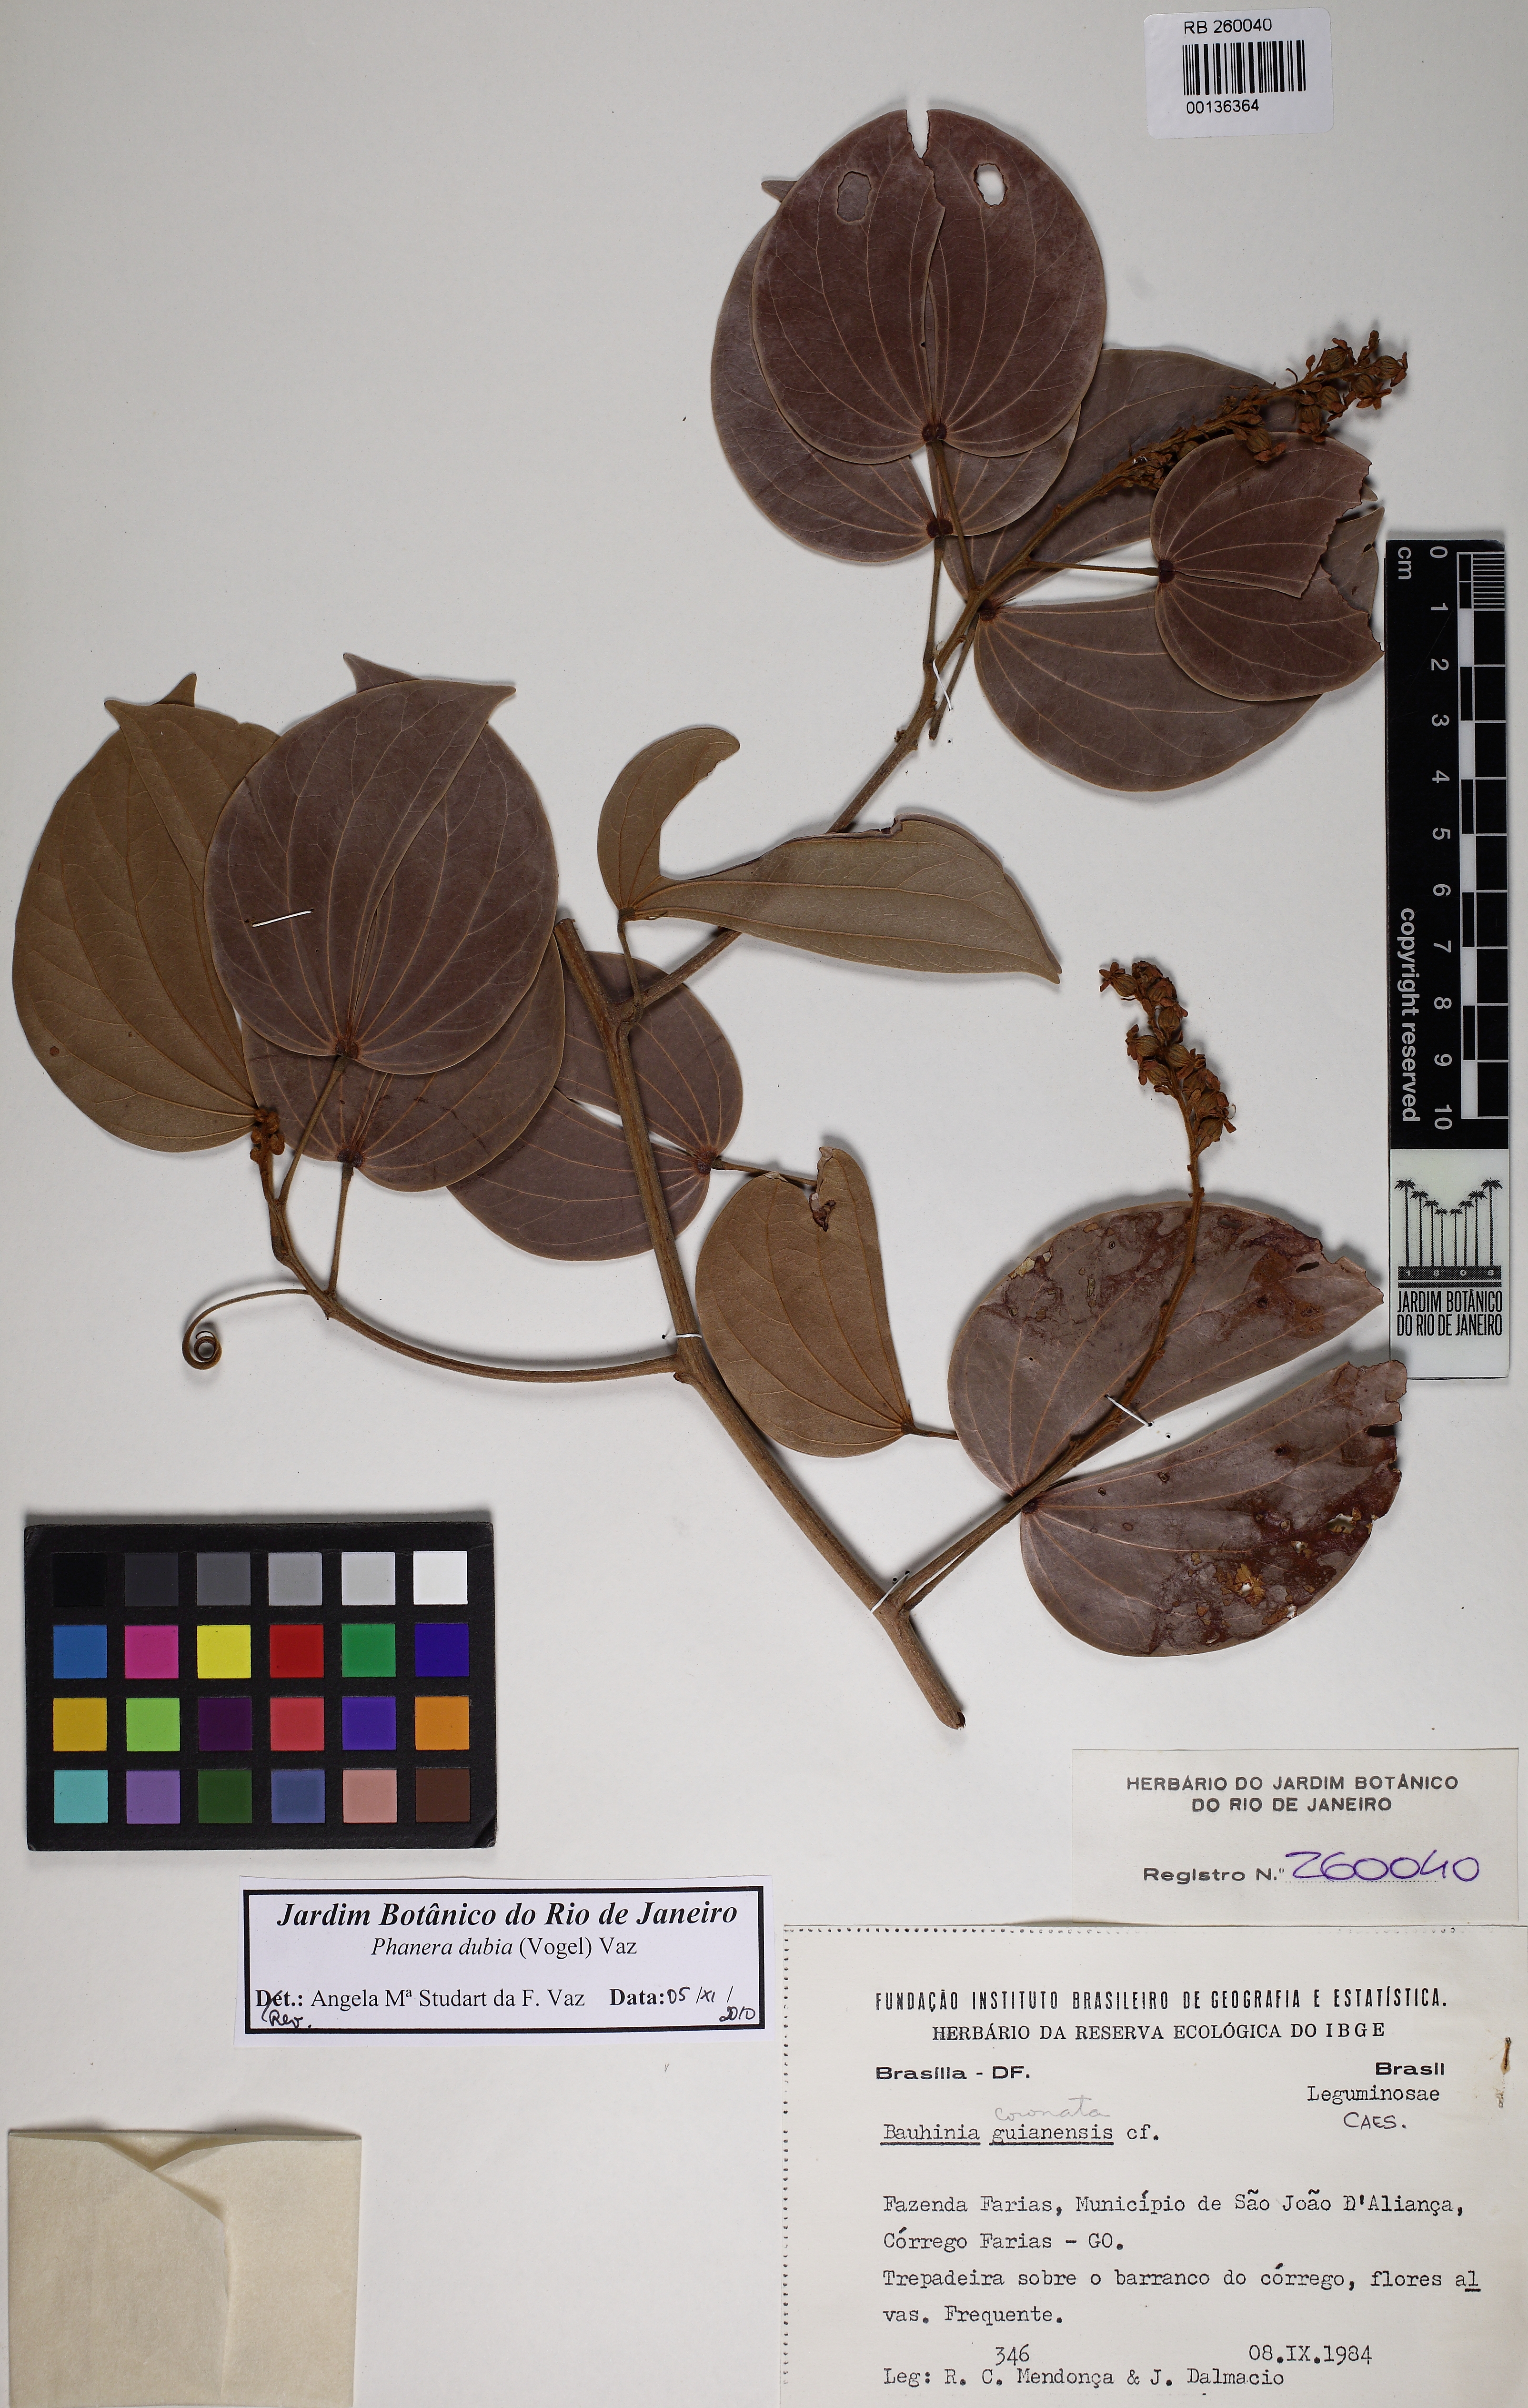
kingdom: Plantae
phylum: Tracheophyta
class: Magnoliopsida
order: Fabales
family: Fabaceae
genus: Schnella
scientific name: Schnella outimouta
